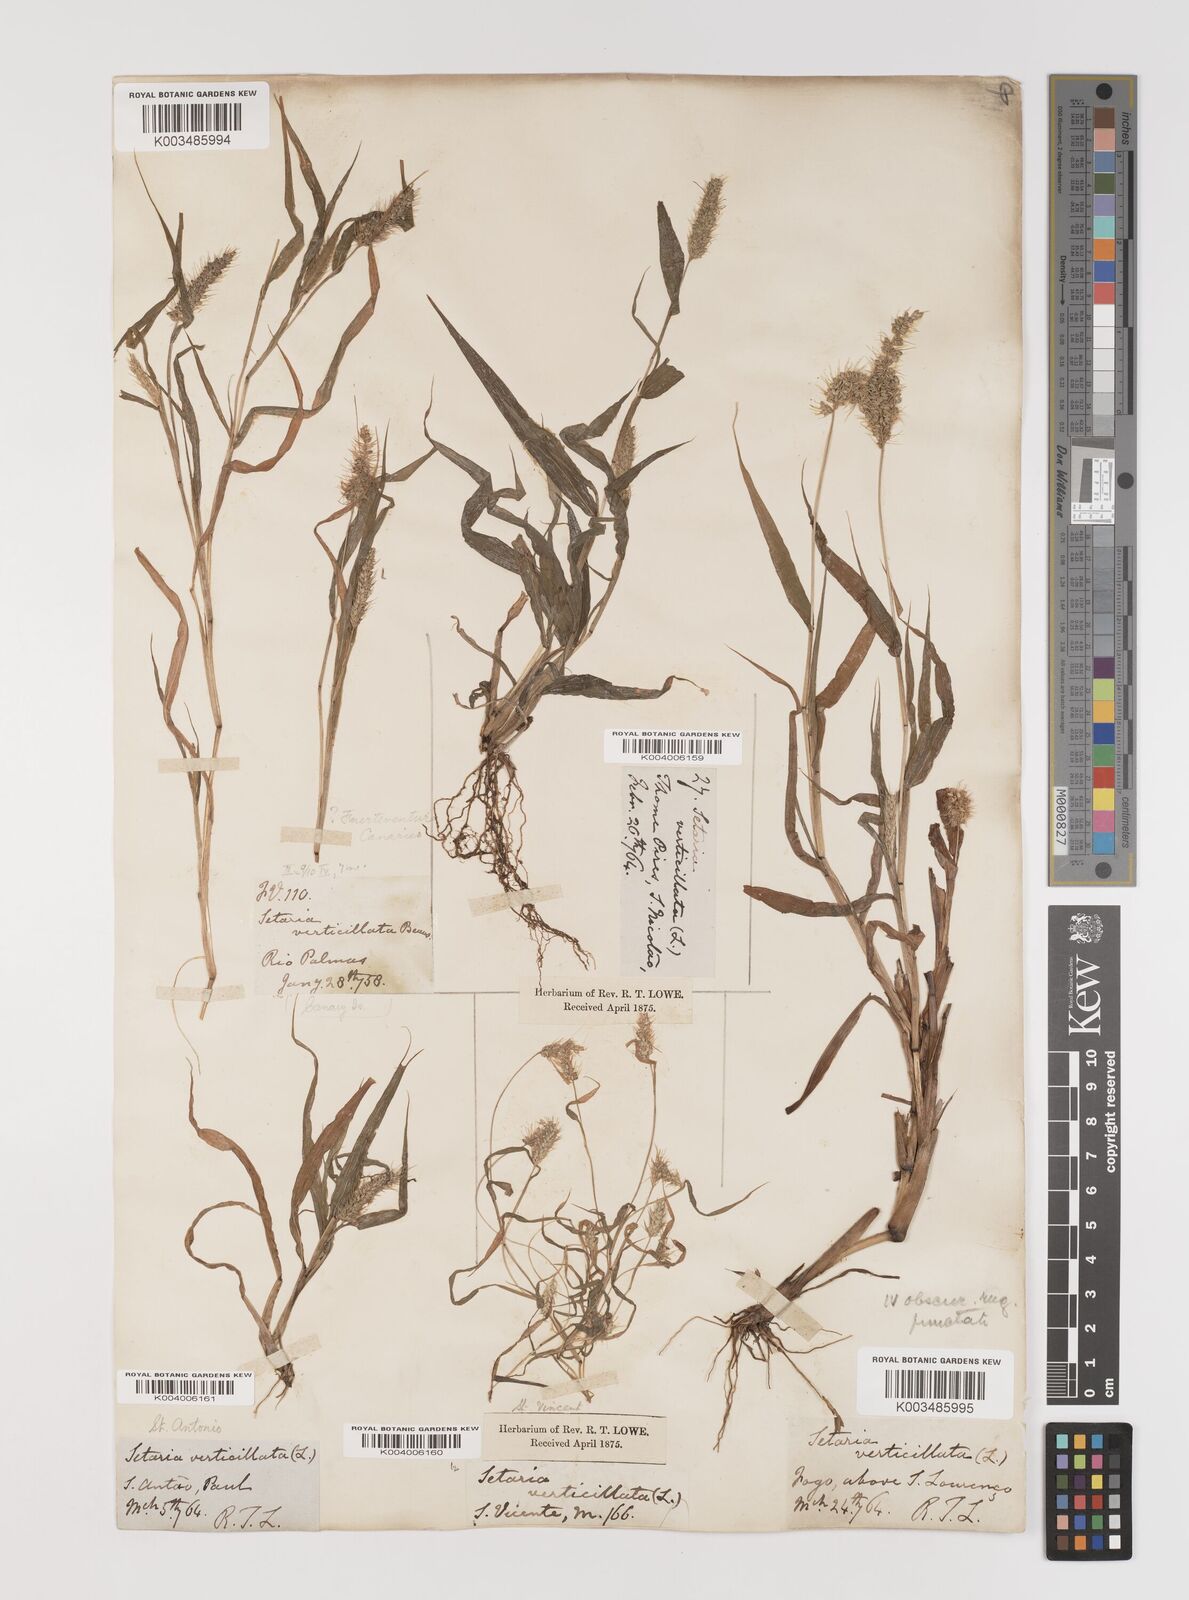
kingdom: Plantae
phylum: Tracheophyta
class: Liliopsida
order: Poales
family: Poaceae
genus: Setaria
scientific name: Setaria verticillata
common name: Hooked bristlegrass
